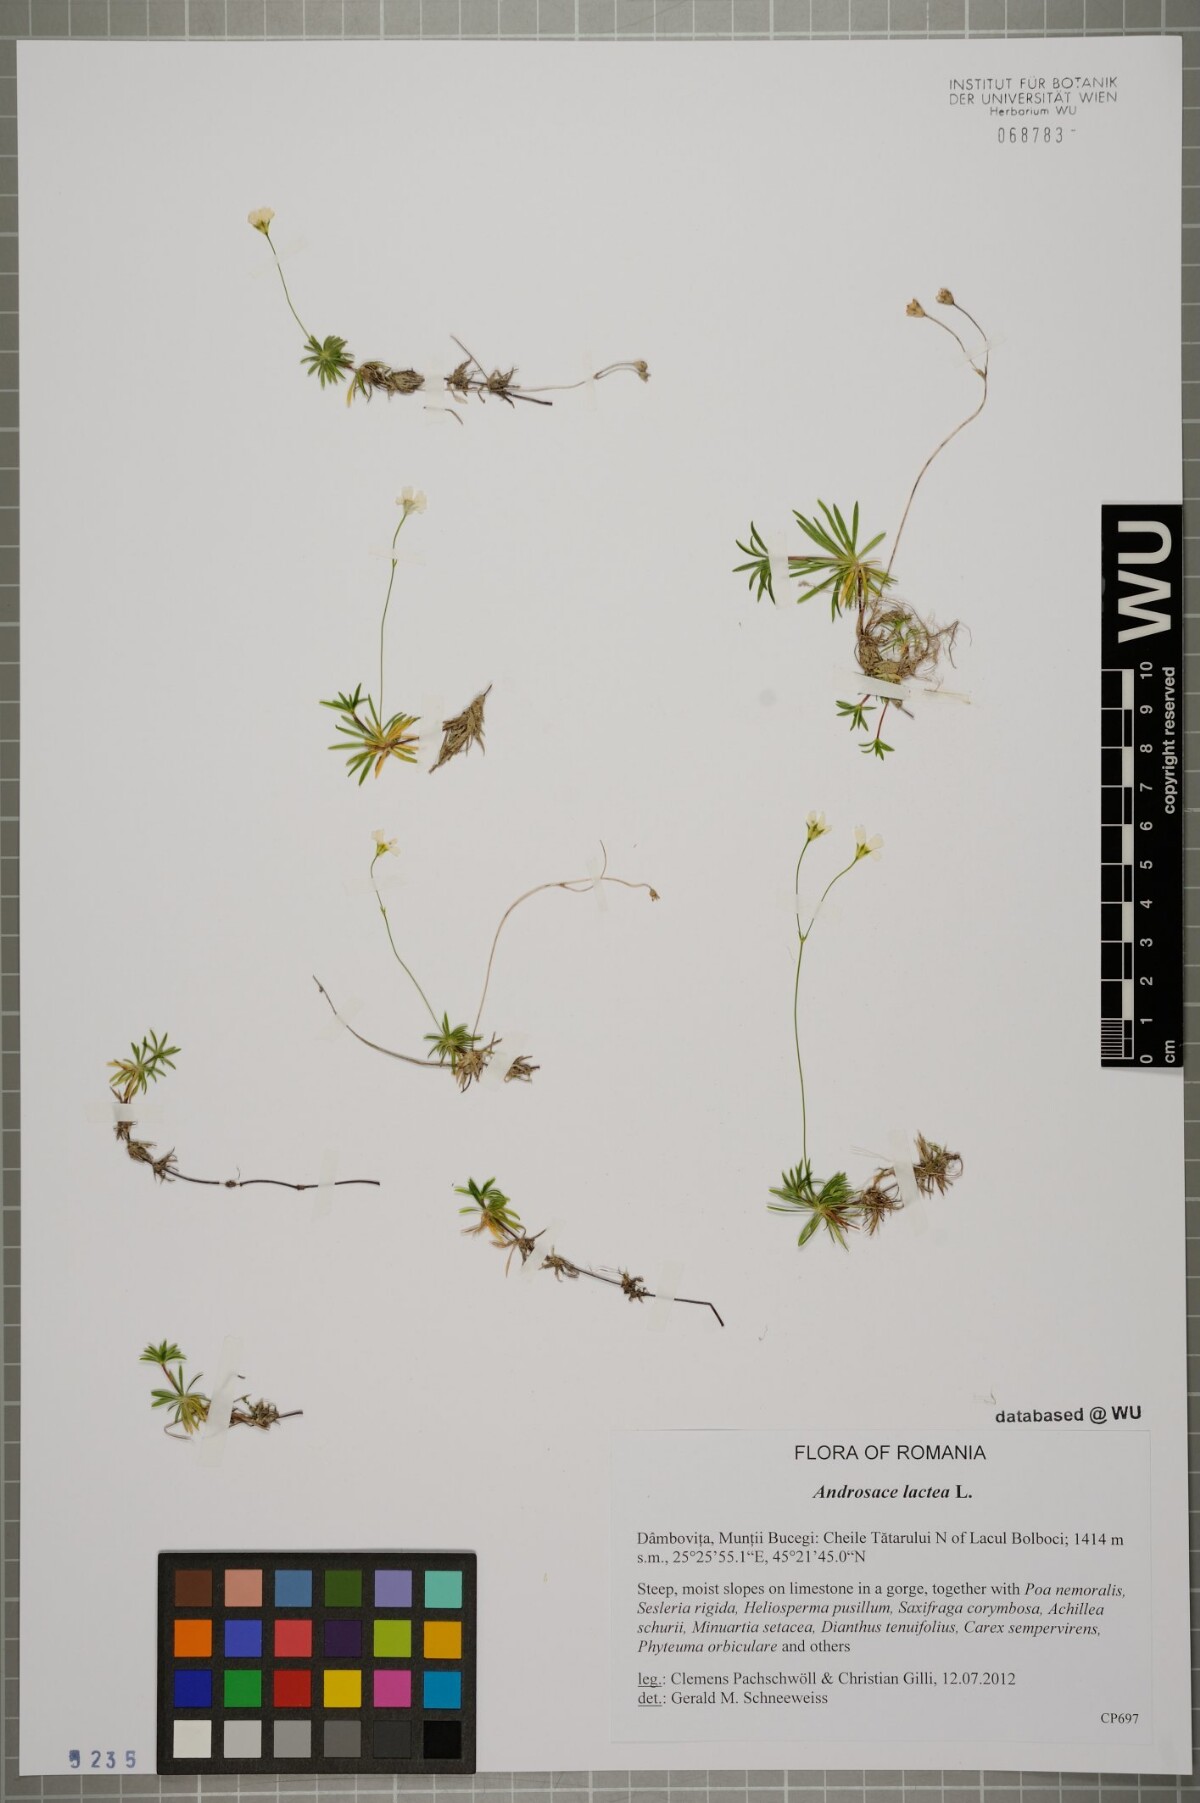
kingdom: Plantae
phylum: Tracheophyta
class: Magnoliopsida
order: Ericales
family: Primulaceae
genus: Androsace
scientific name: Androsace lactea
